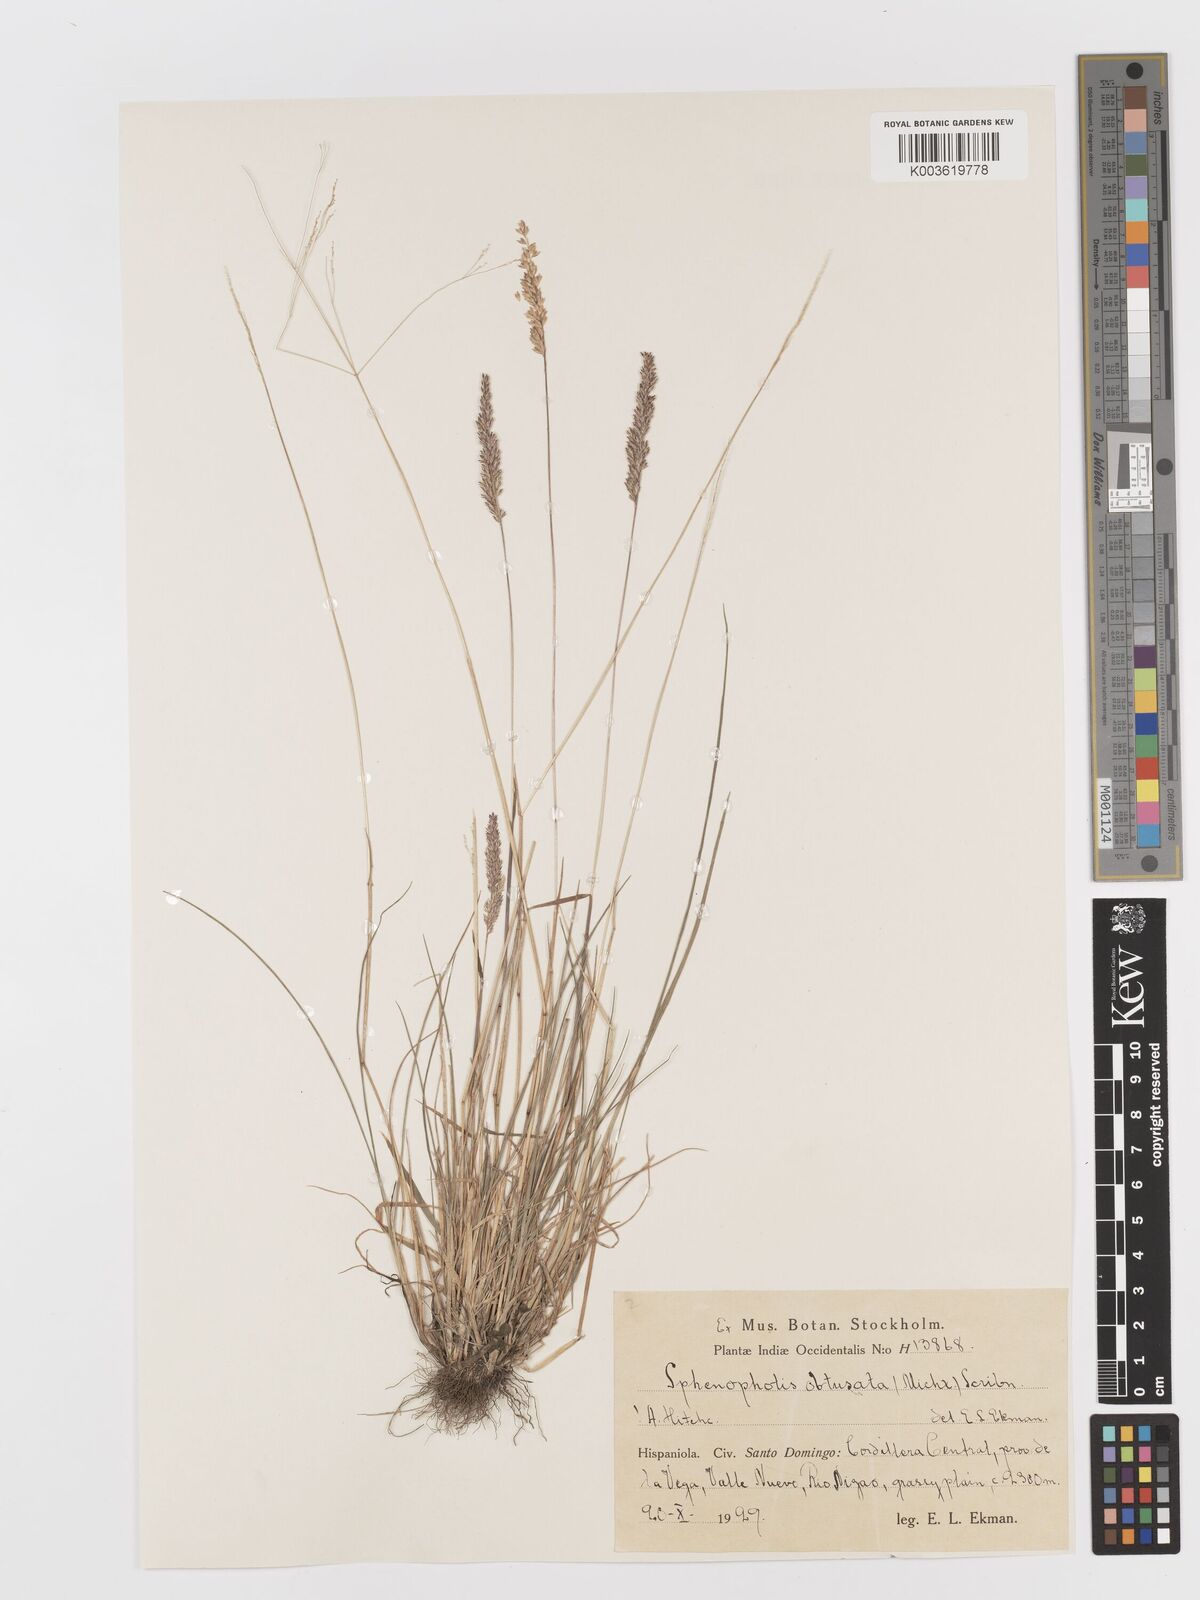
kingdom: Plantae
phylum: Tracheophyta
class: Liliopsida
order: Poales
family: Poaceae
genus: Sphenopholis
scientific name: Sphenopholis obtusata
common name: Prairie grass
